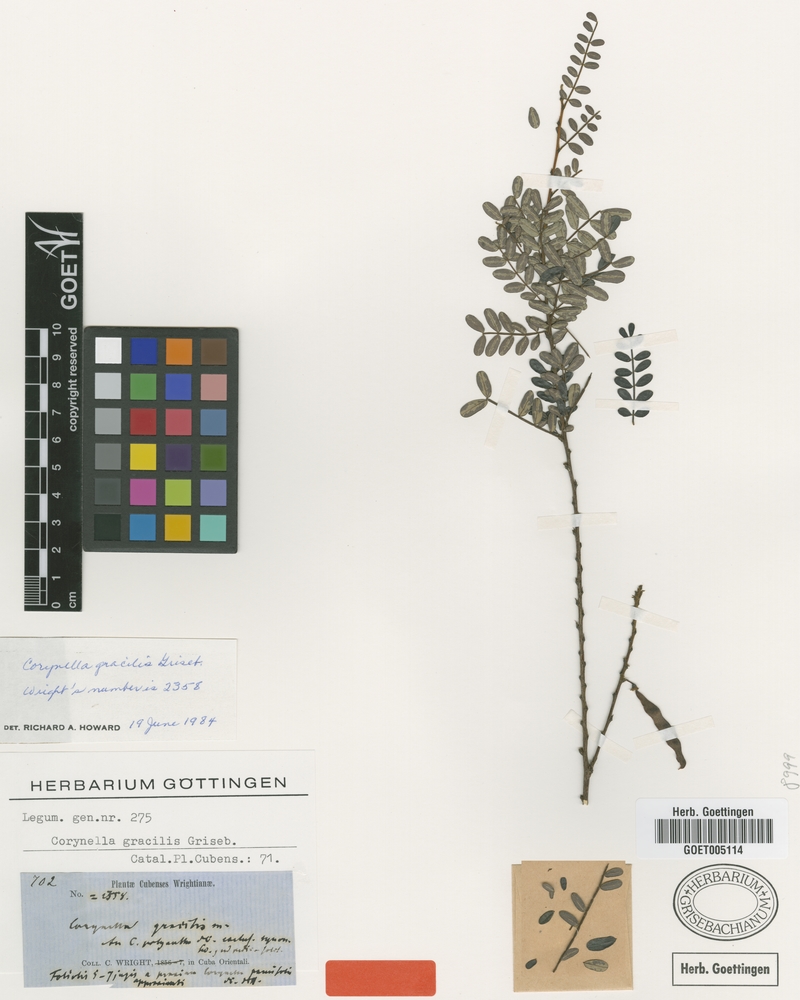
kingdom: Plantae
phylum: Tracheophyta
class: Magnoliopsida
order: Fabales
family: Fabaceae
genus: Poitea
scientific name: Poitea gracilis
